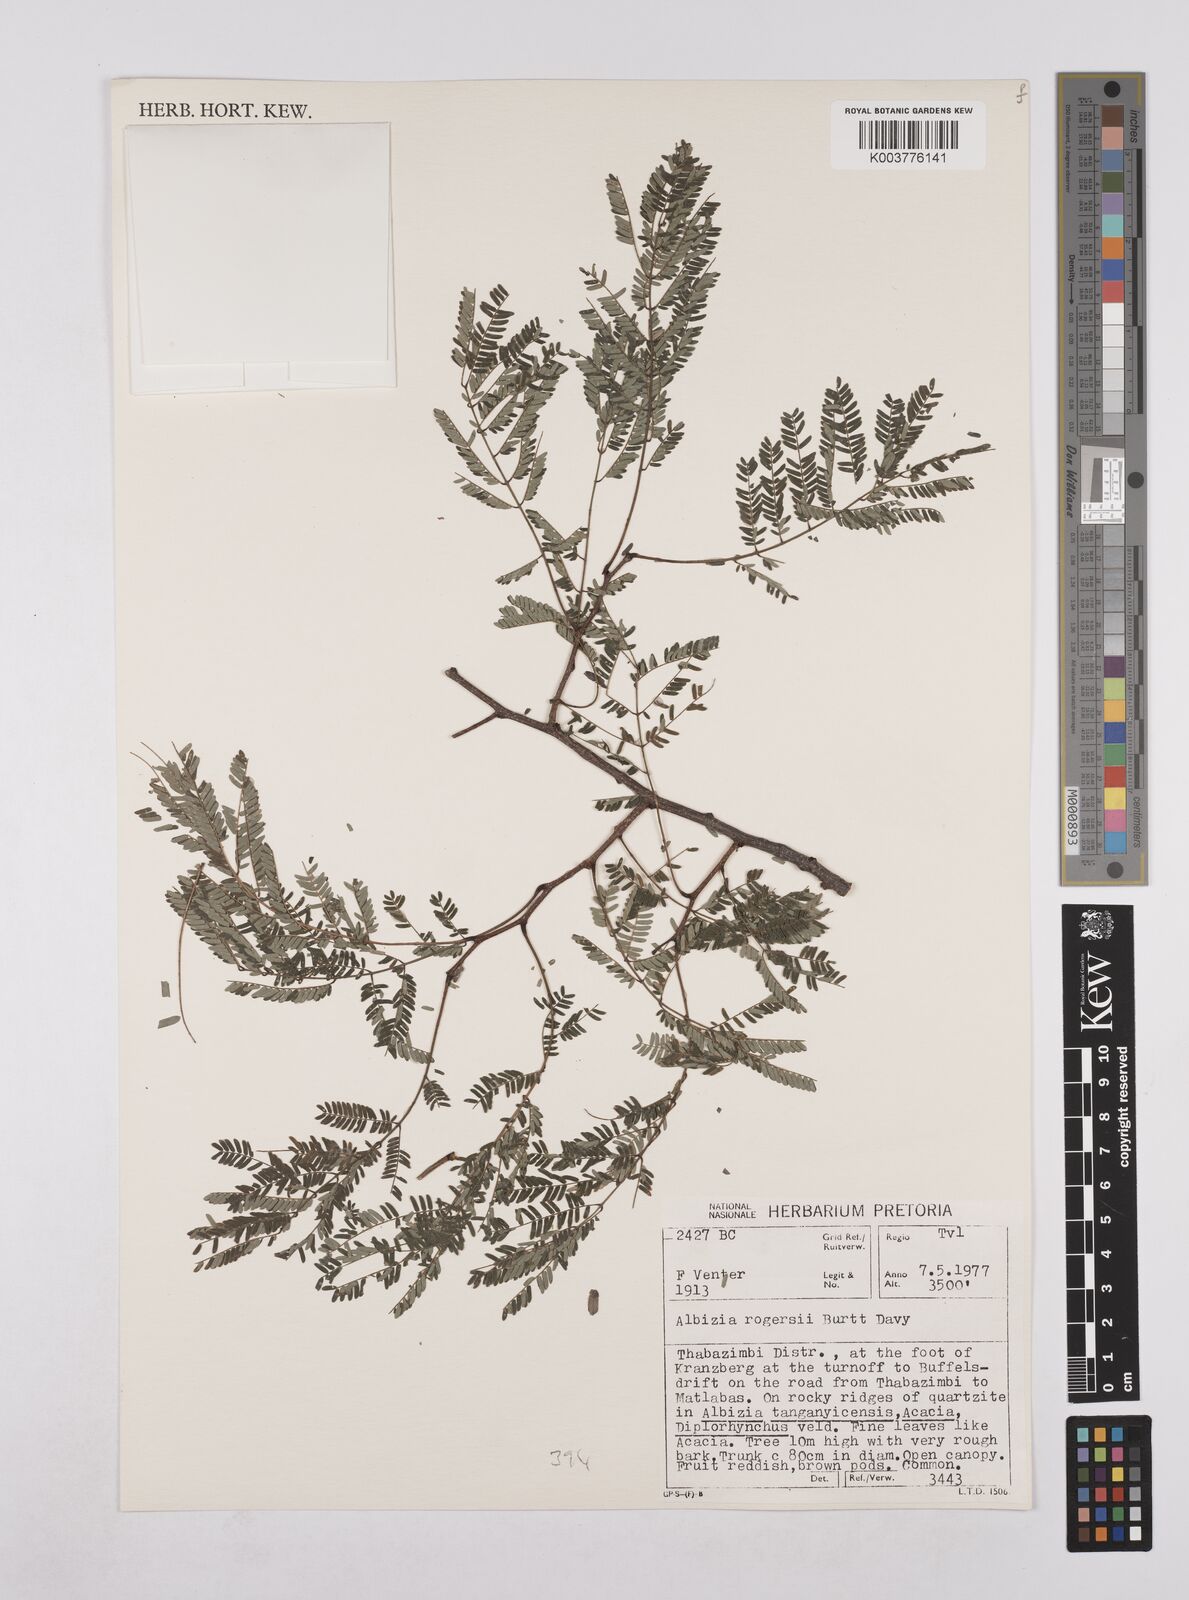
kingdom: Plantae
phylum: Tracheophyta
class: Magnoliopsida
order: Fabales
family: Fabaceae
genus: Albizia
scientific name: Albizia brevifolia
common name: Rock false-thorn
